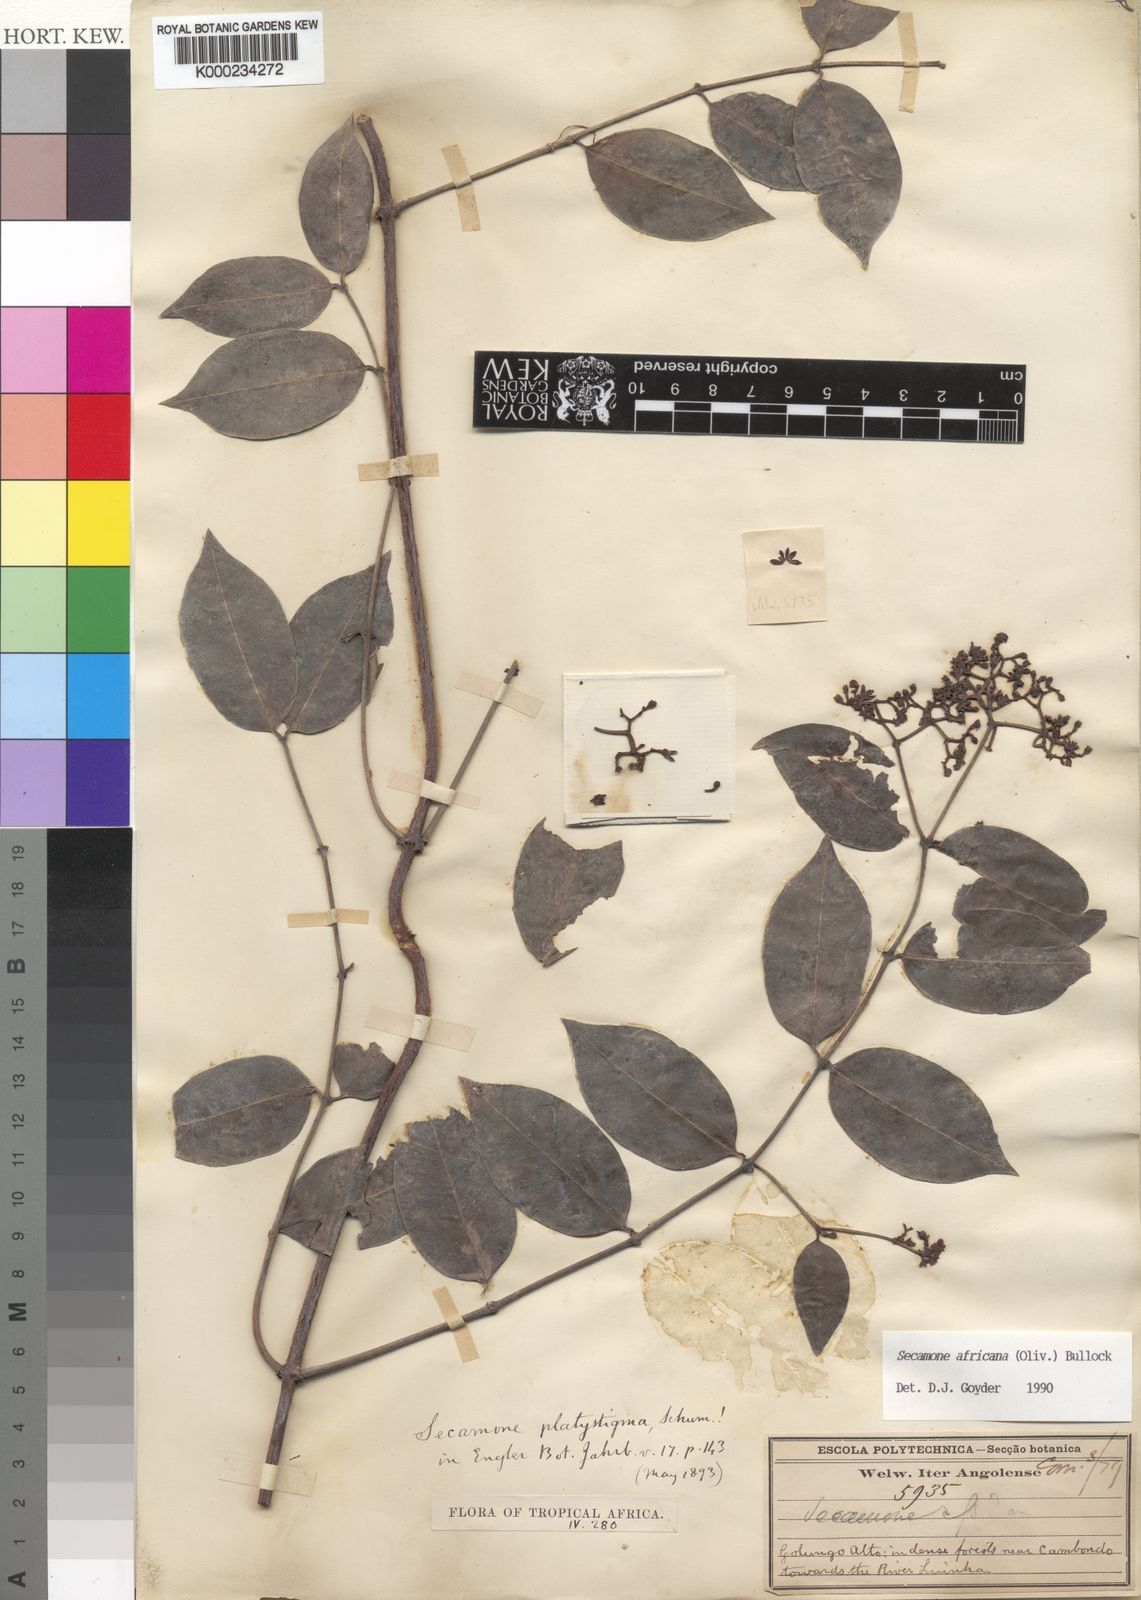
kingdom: Plantae
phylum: Tracheophyta
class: Magnoliopsida
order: Gentianales
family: Apocynaceae
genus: Secamone
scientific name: Secamone africana
